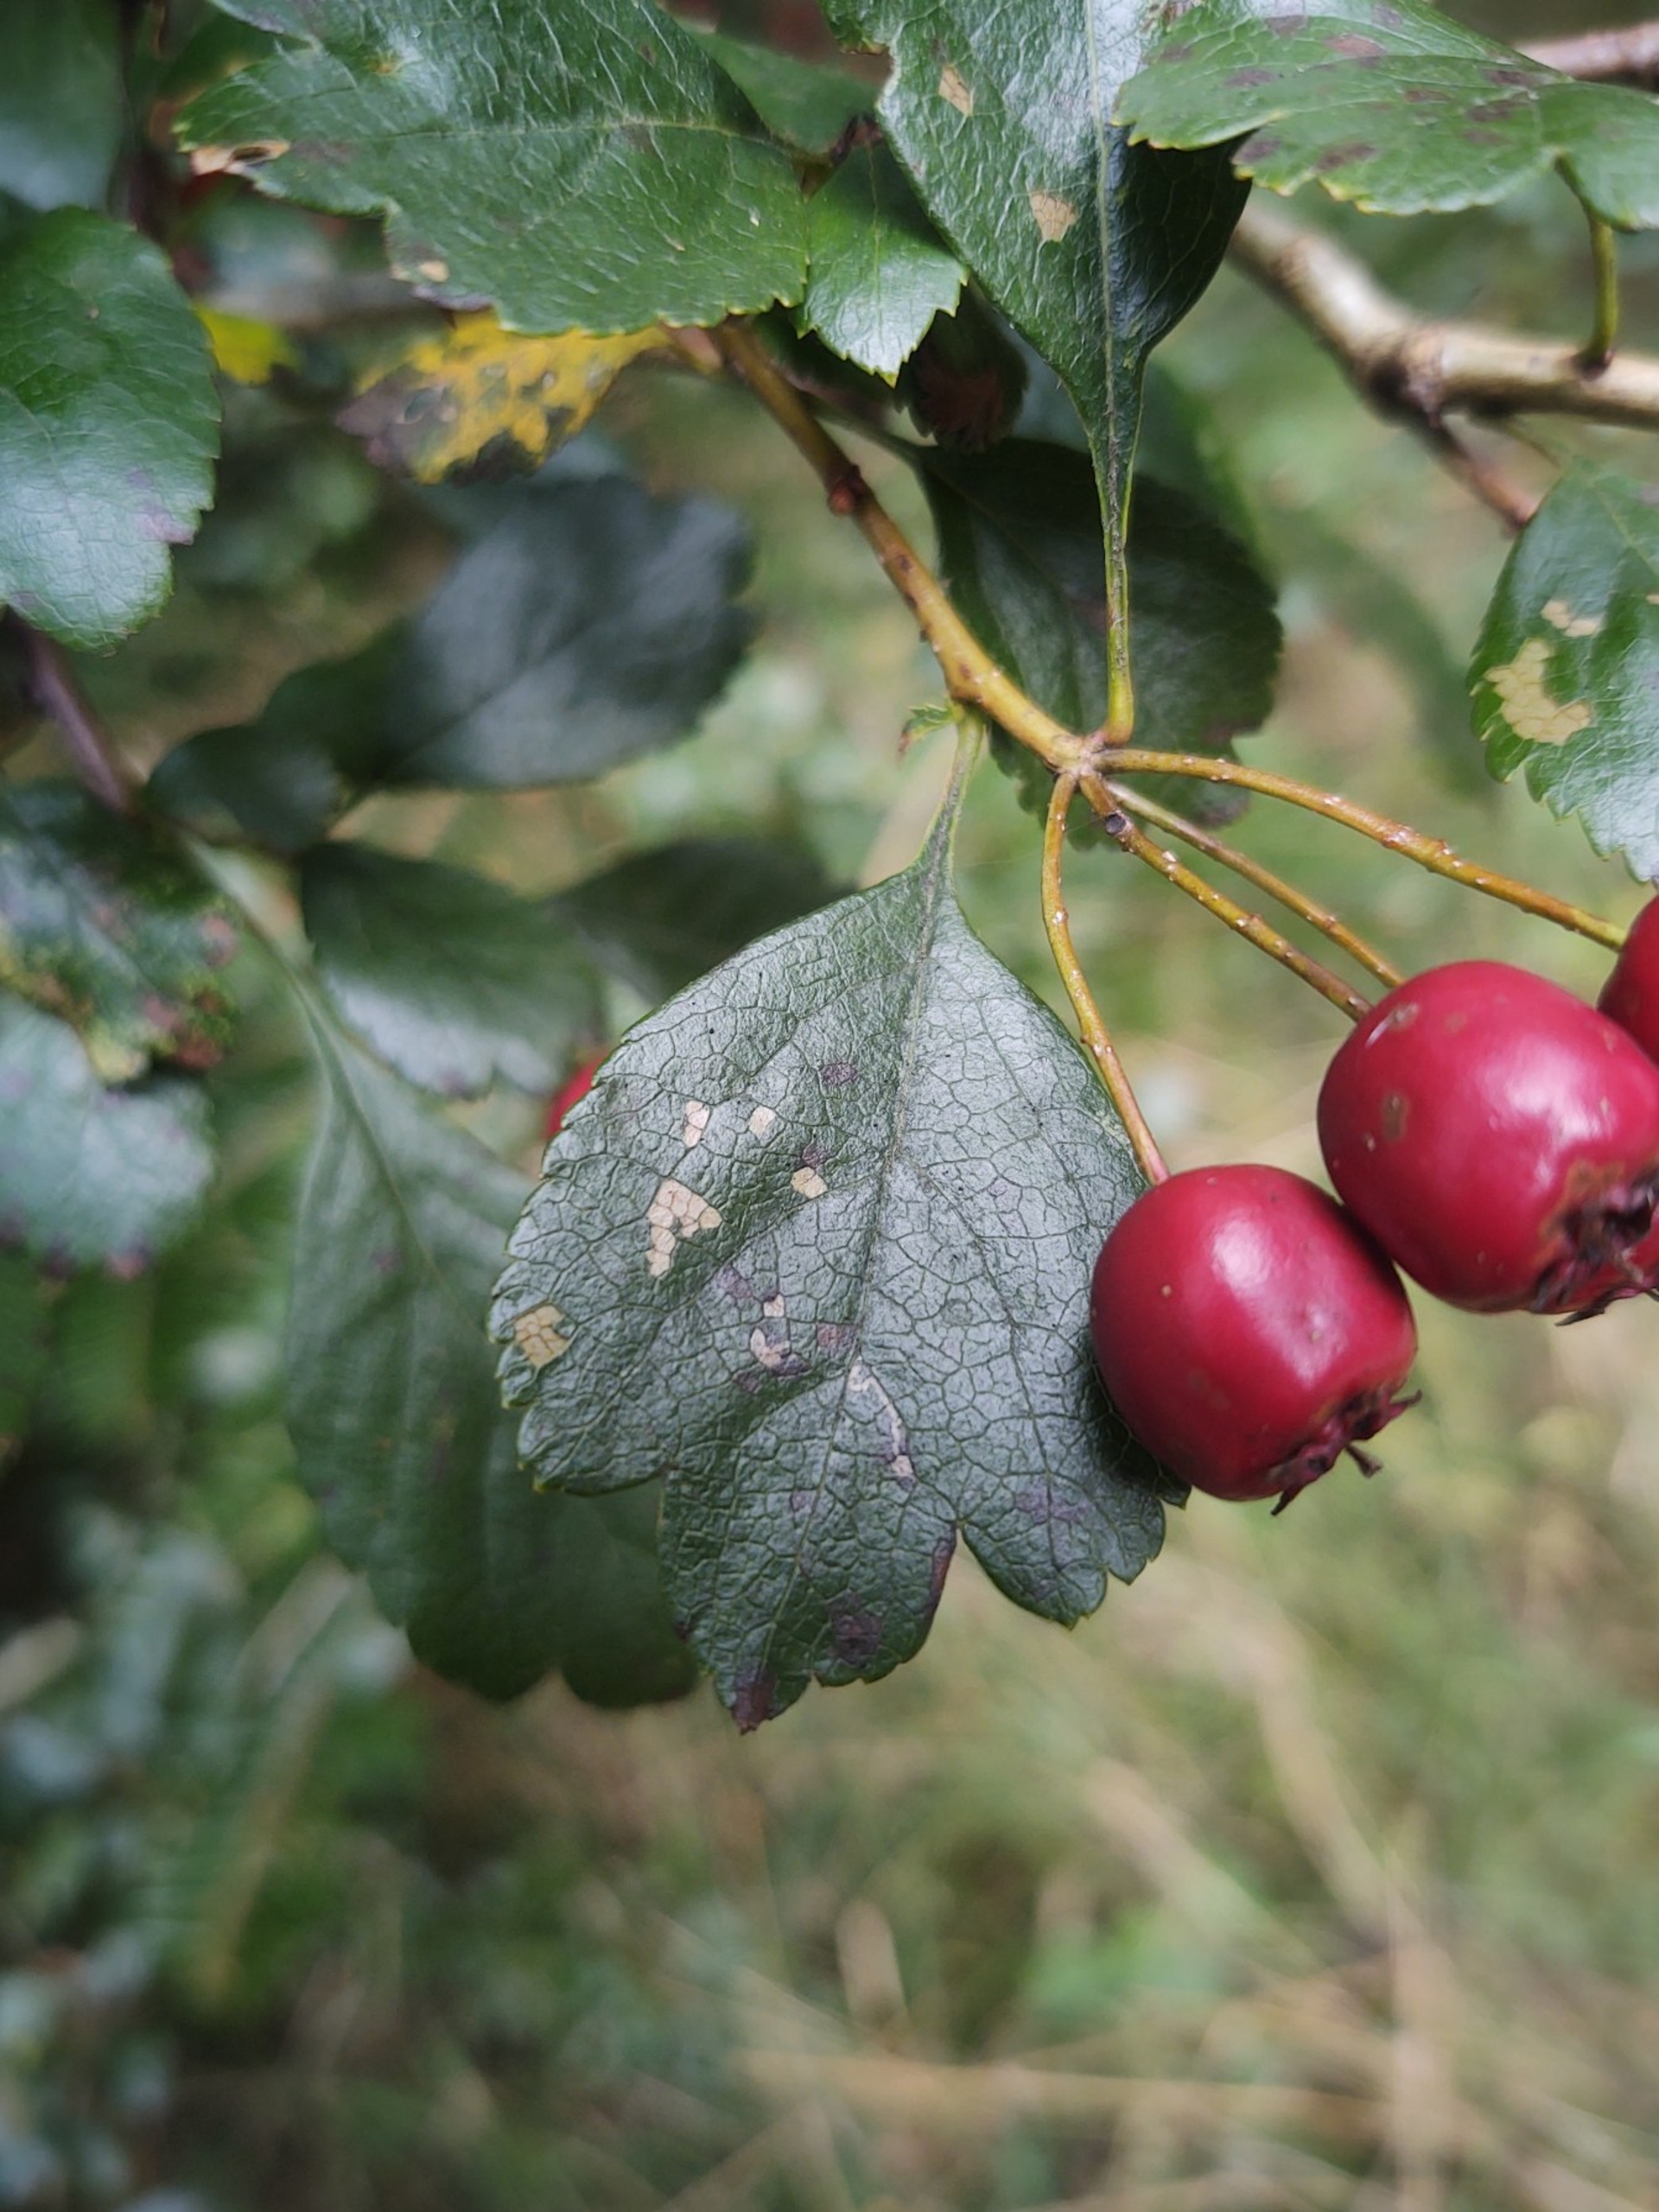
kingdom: Plantae
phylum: Tracheophyta
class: Magnoliopsida
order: Rosales
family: Rosaceae
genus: Crataegus
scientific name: Crataegus laevigata
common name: Almindelig hvidtjørn
